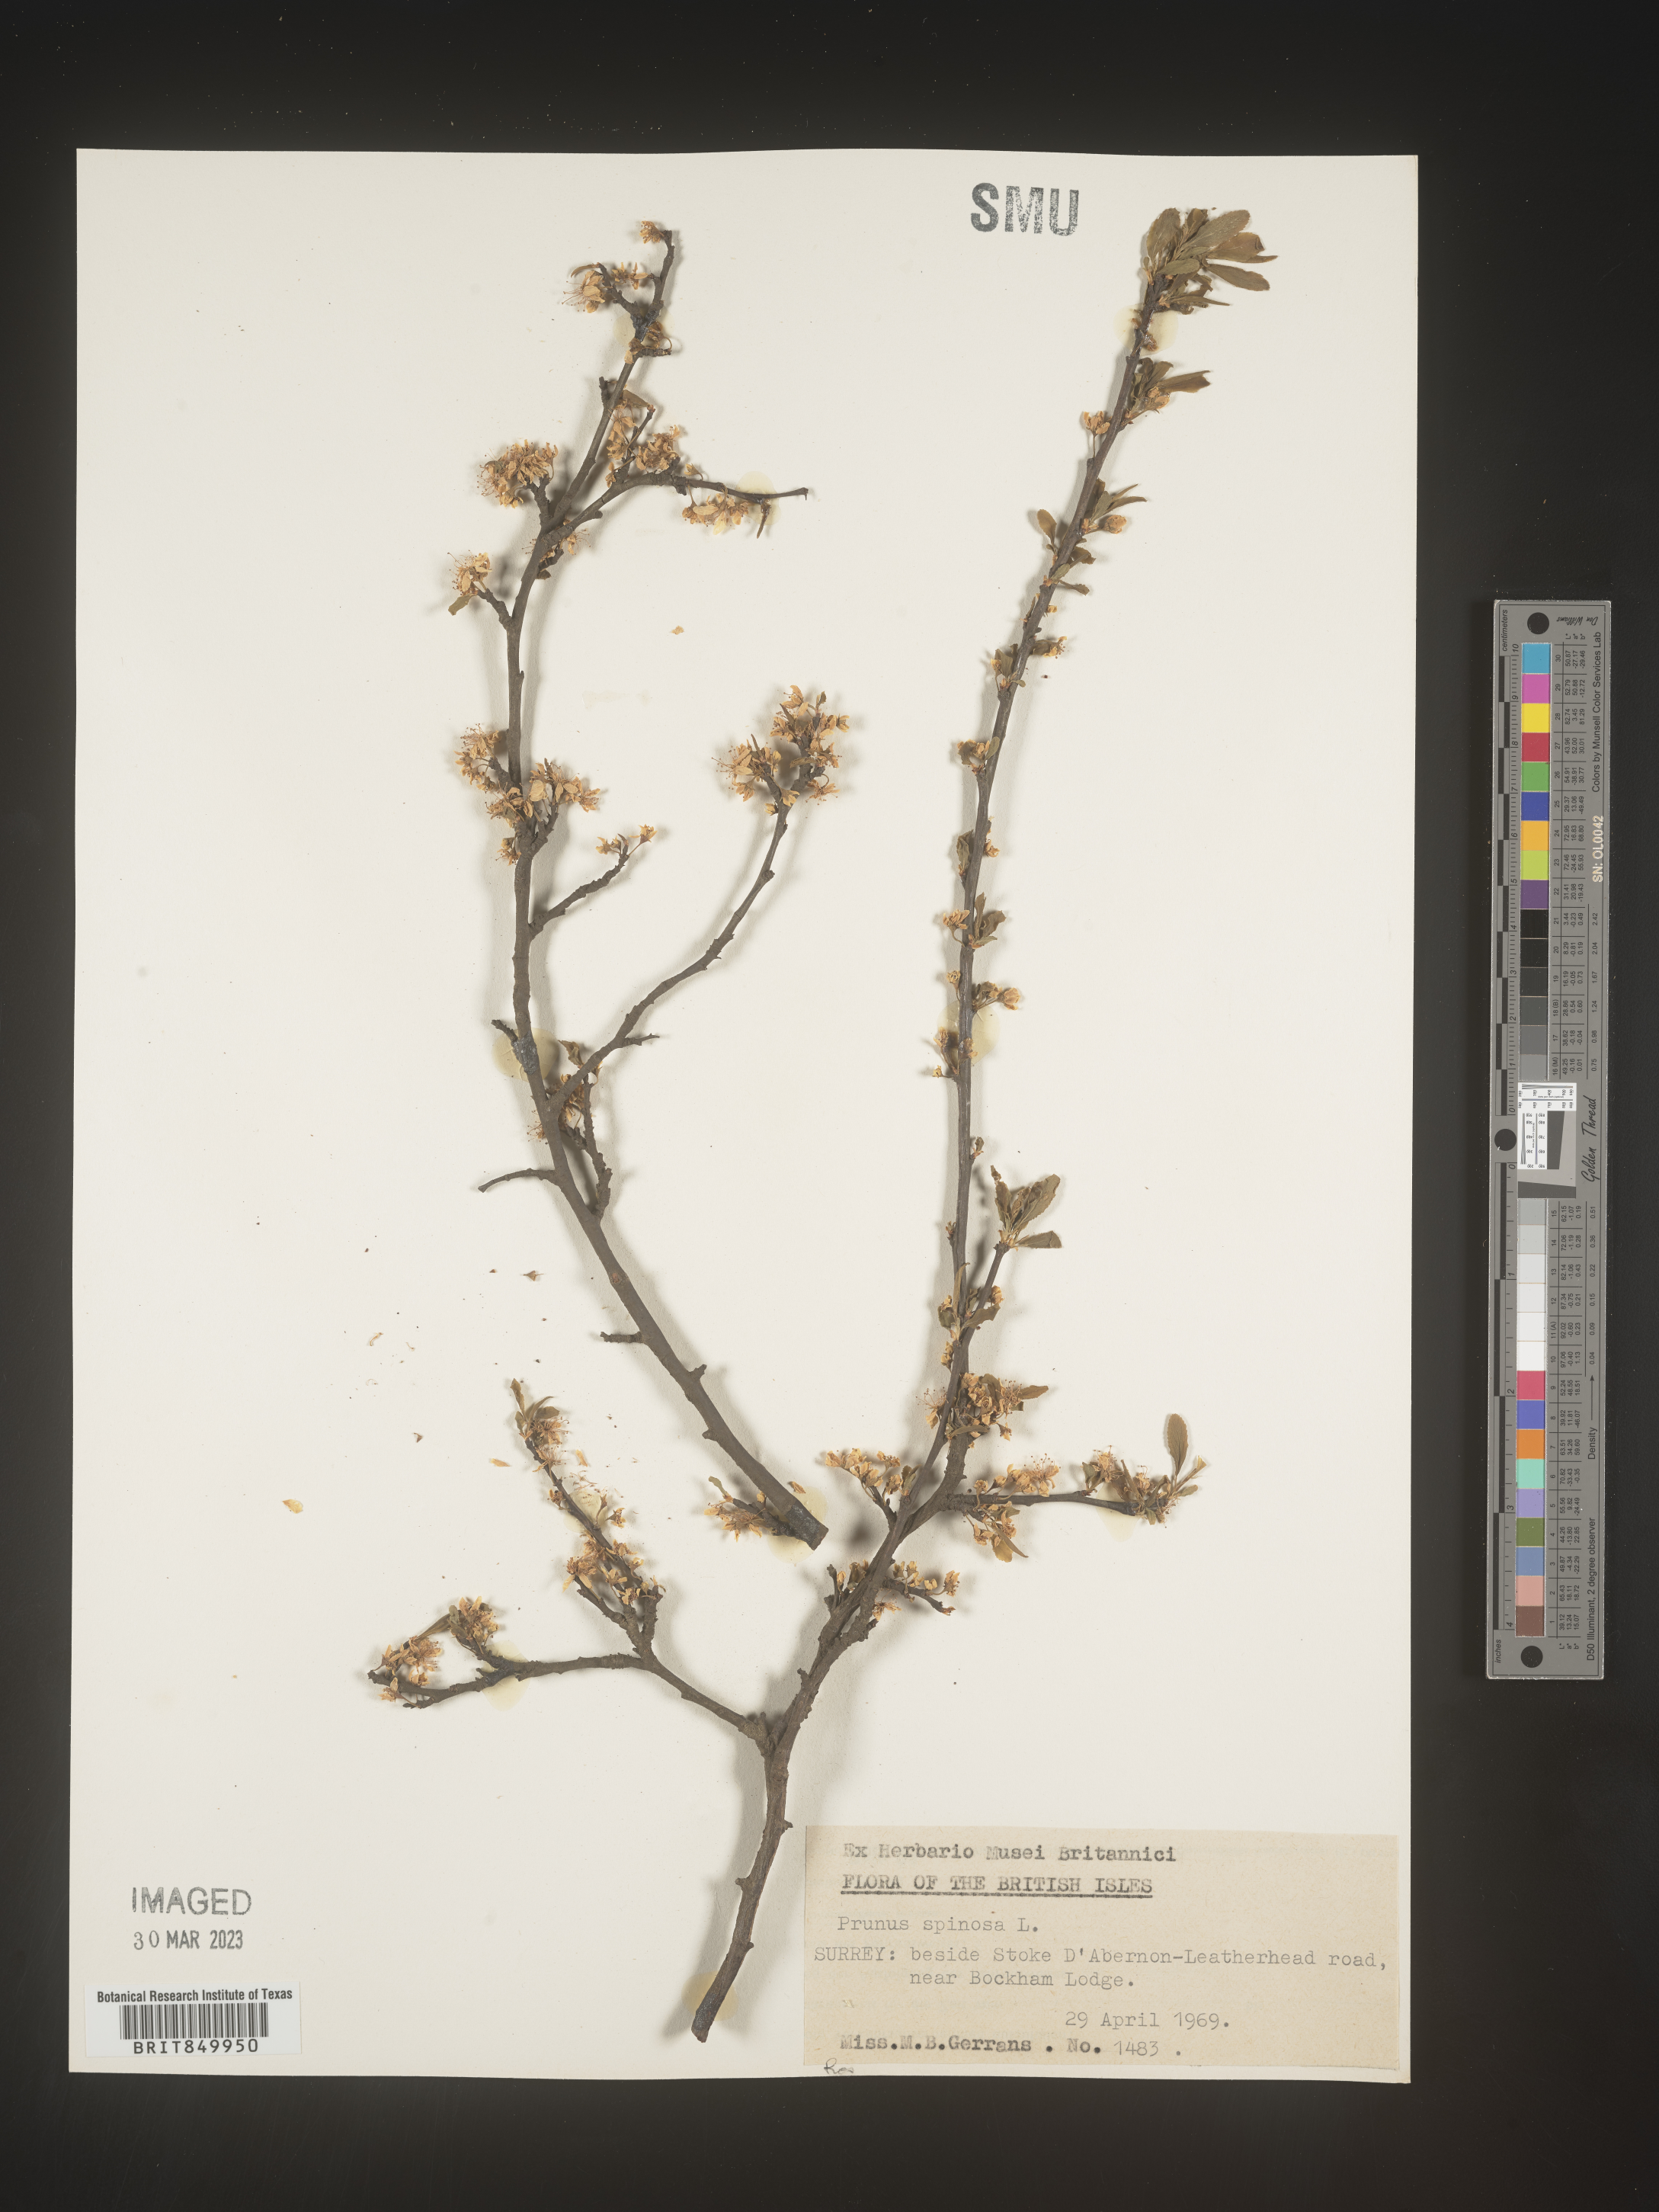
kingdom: Plantae
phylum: Tracheophyta
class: Magnoliopsida
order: Rosales
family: Rosaceae
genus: Prunus
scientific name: Prunus
